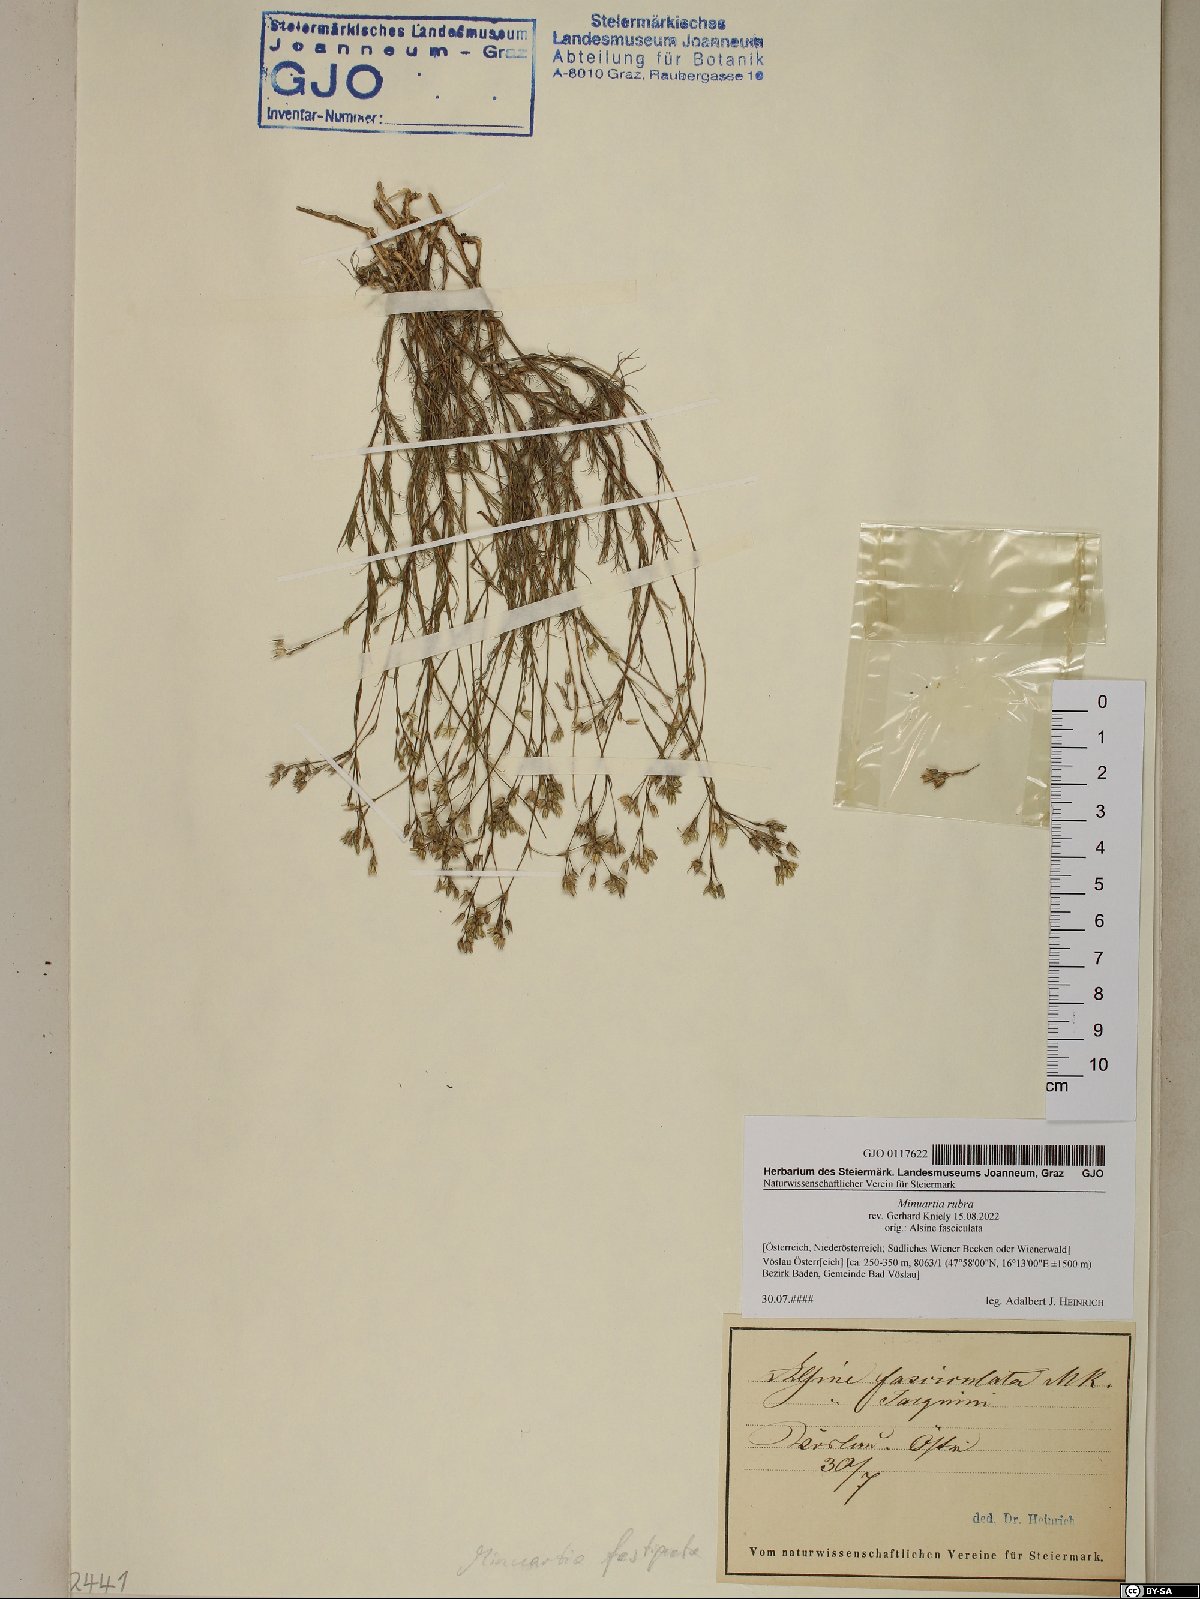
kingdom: Plantae
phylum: Tracheophyta
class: Magnoliopsida
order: Caryophyllales
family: Caryophyllaceae
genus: Minuartia
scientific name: Minuartia mucronata
